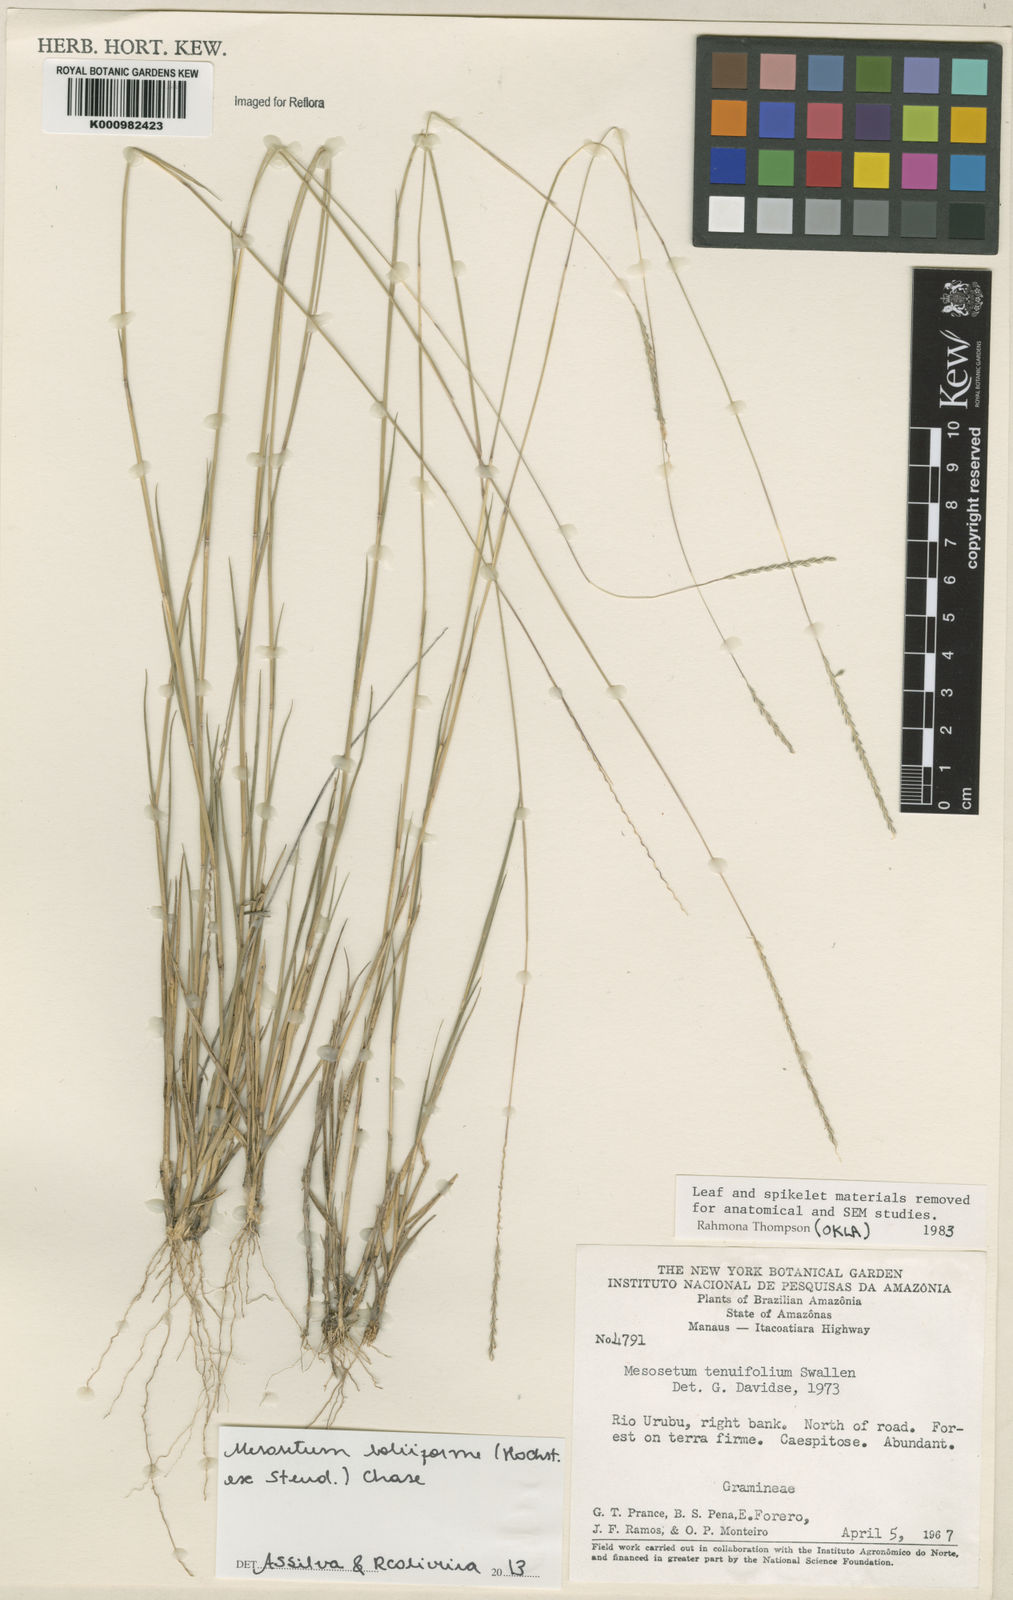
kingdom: Plantae
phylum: Tracheophyta
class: Liliopsida
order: Poales
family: Poaceae
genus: Mesosetum
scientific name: Mesosetum
